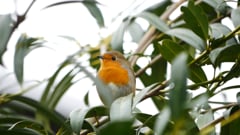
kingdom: Animalia
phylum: Chordata
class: Aves
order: Passeriformes
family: Muscicapidae
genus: Erithacus
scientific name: Erithacus rubecula
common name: European robin
